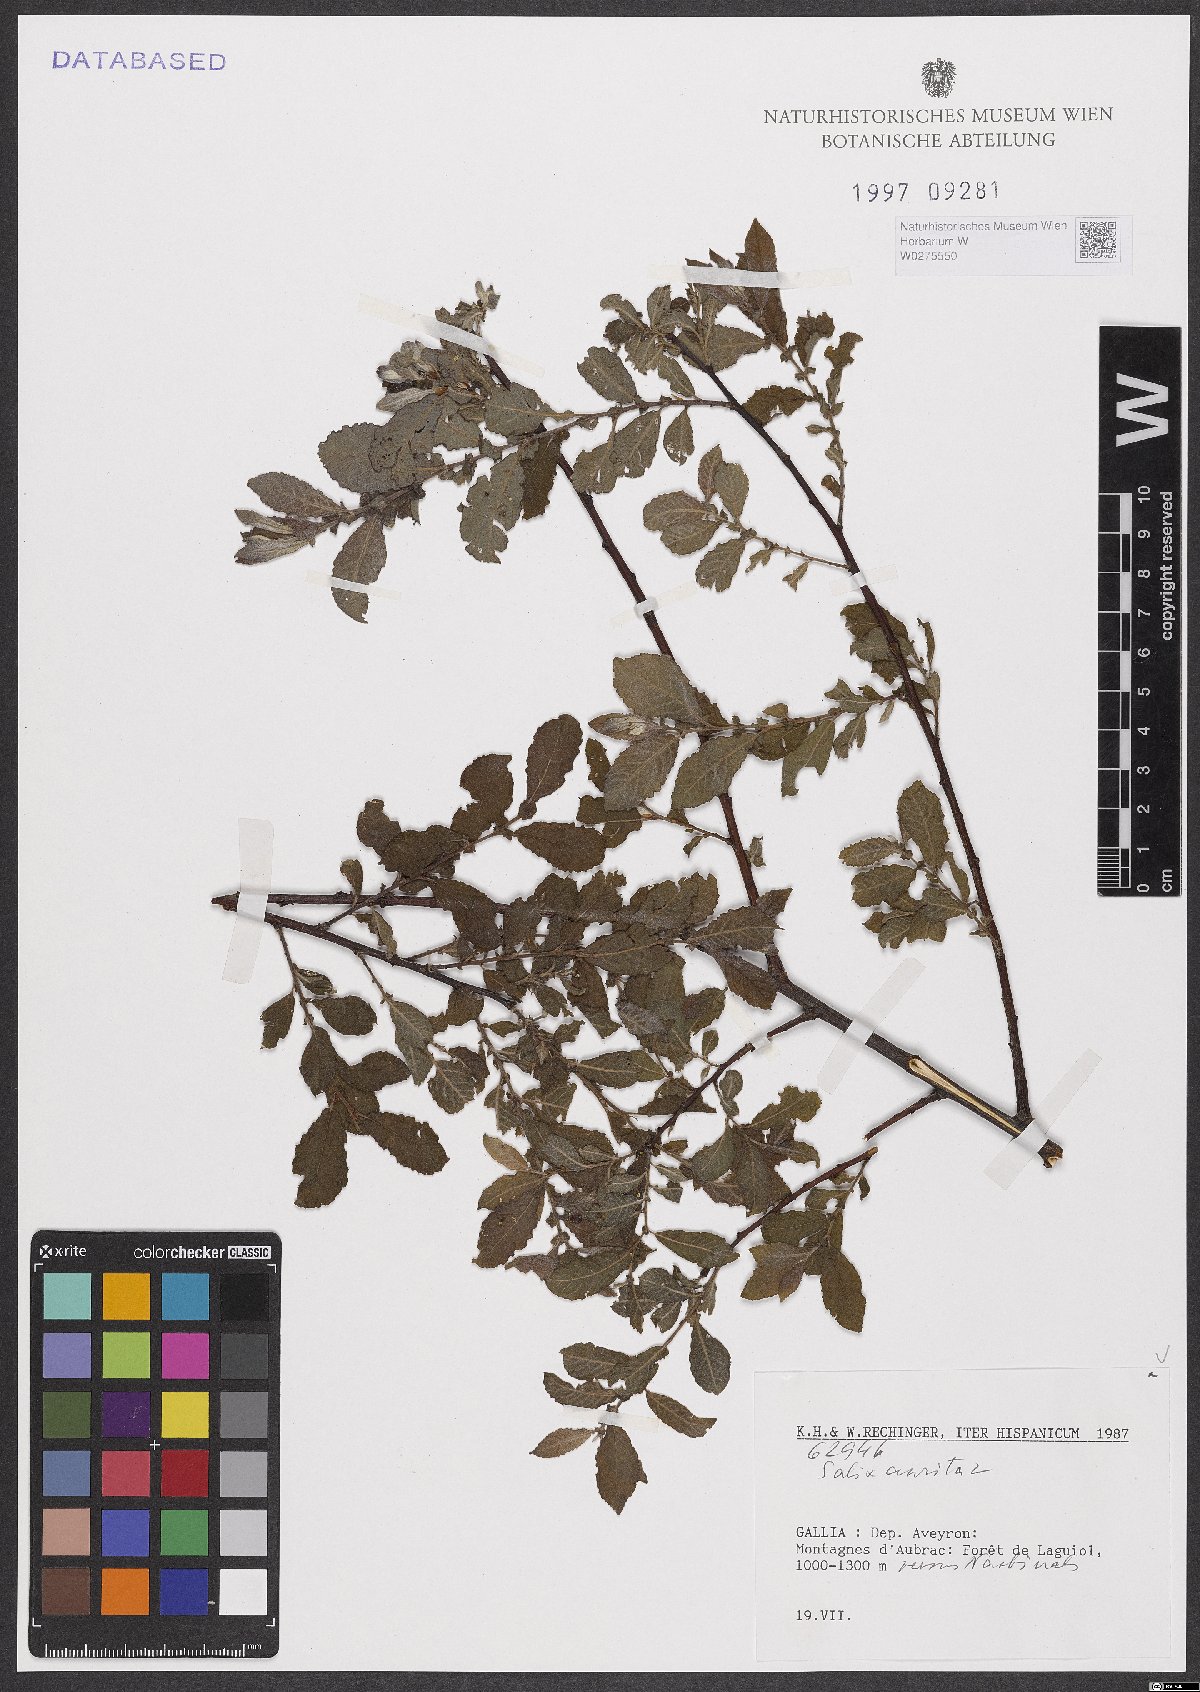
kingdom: Plantae
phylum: Tracheophyta
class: Magnoliopsida
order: Malpighiales
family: Salicaceae
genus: Salix
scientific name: Salix aurita
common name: Eared willow
